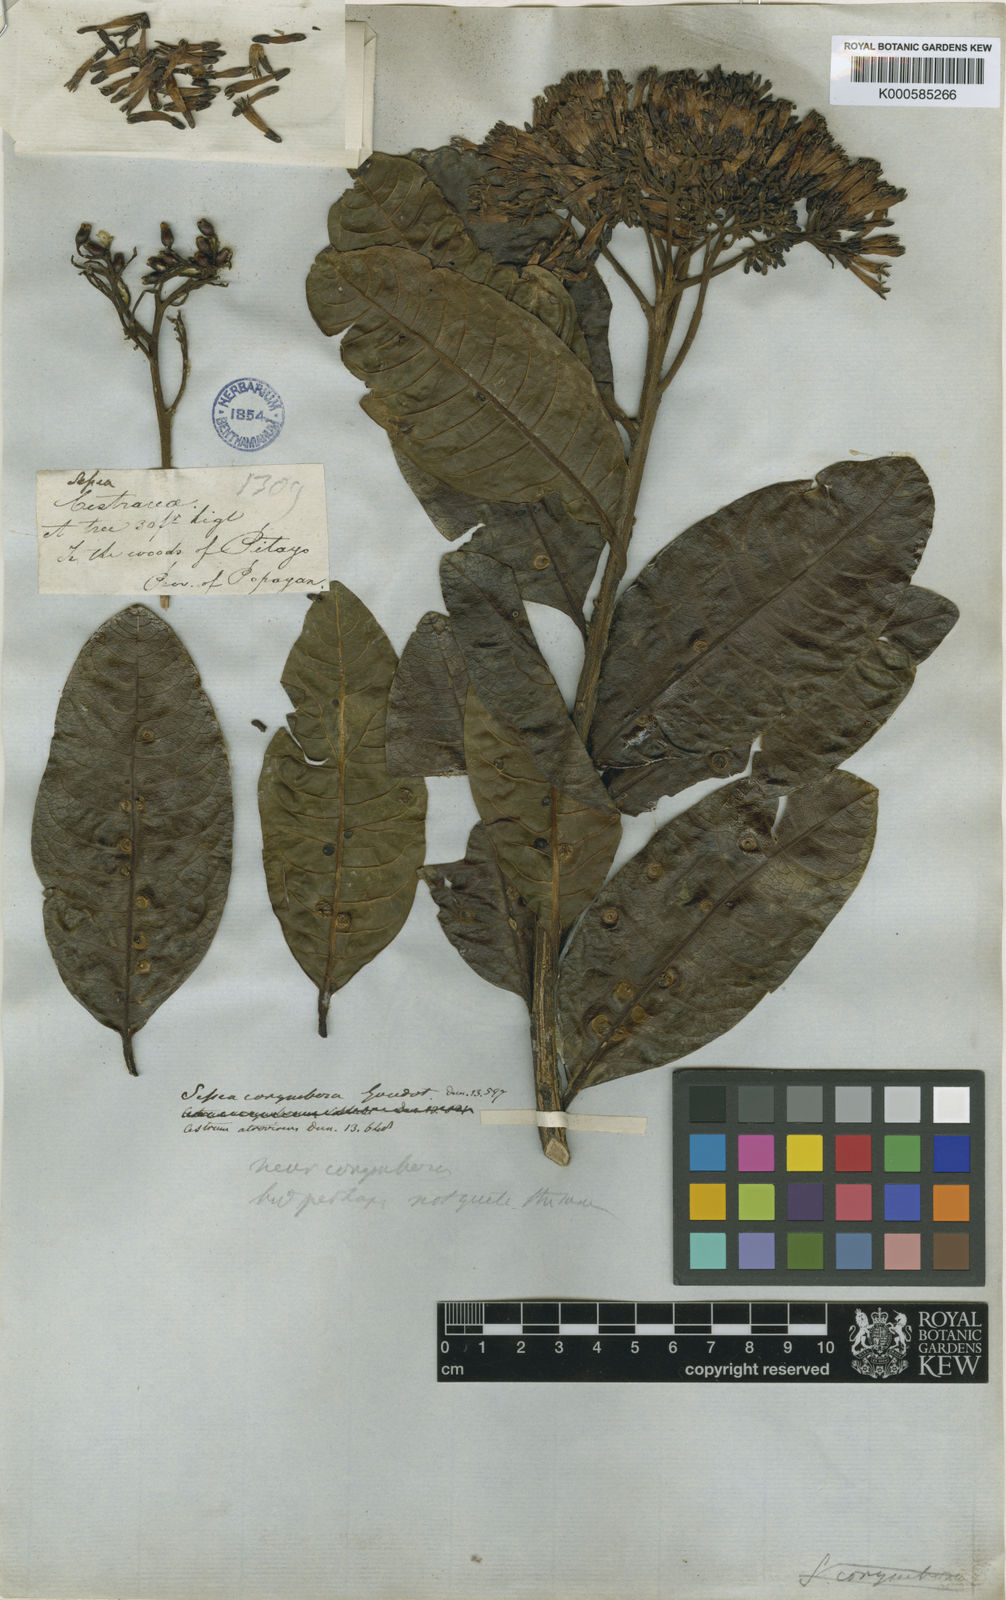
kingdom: Plantae
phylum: Tracheophyta
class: Magnoliopsida
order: Solanales
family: Solanaceae
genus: Sessea
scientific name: Sessea corymbiflora
